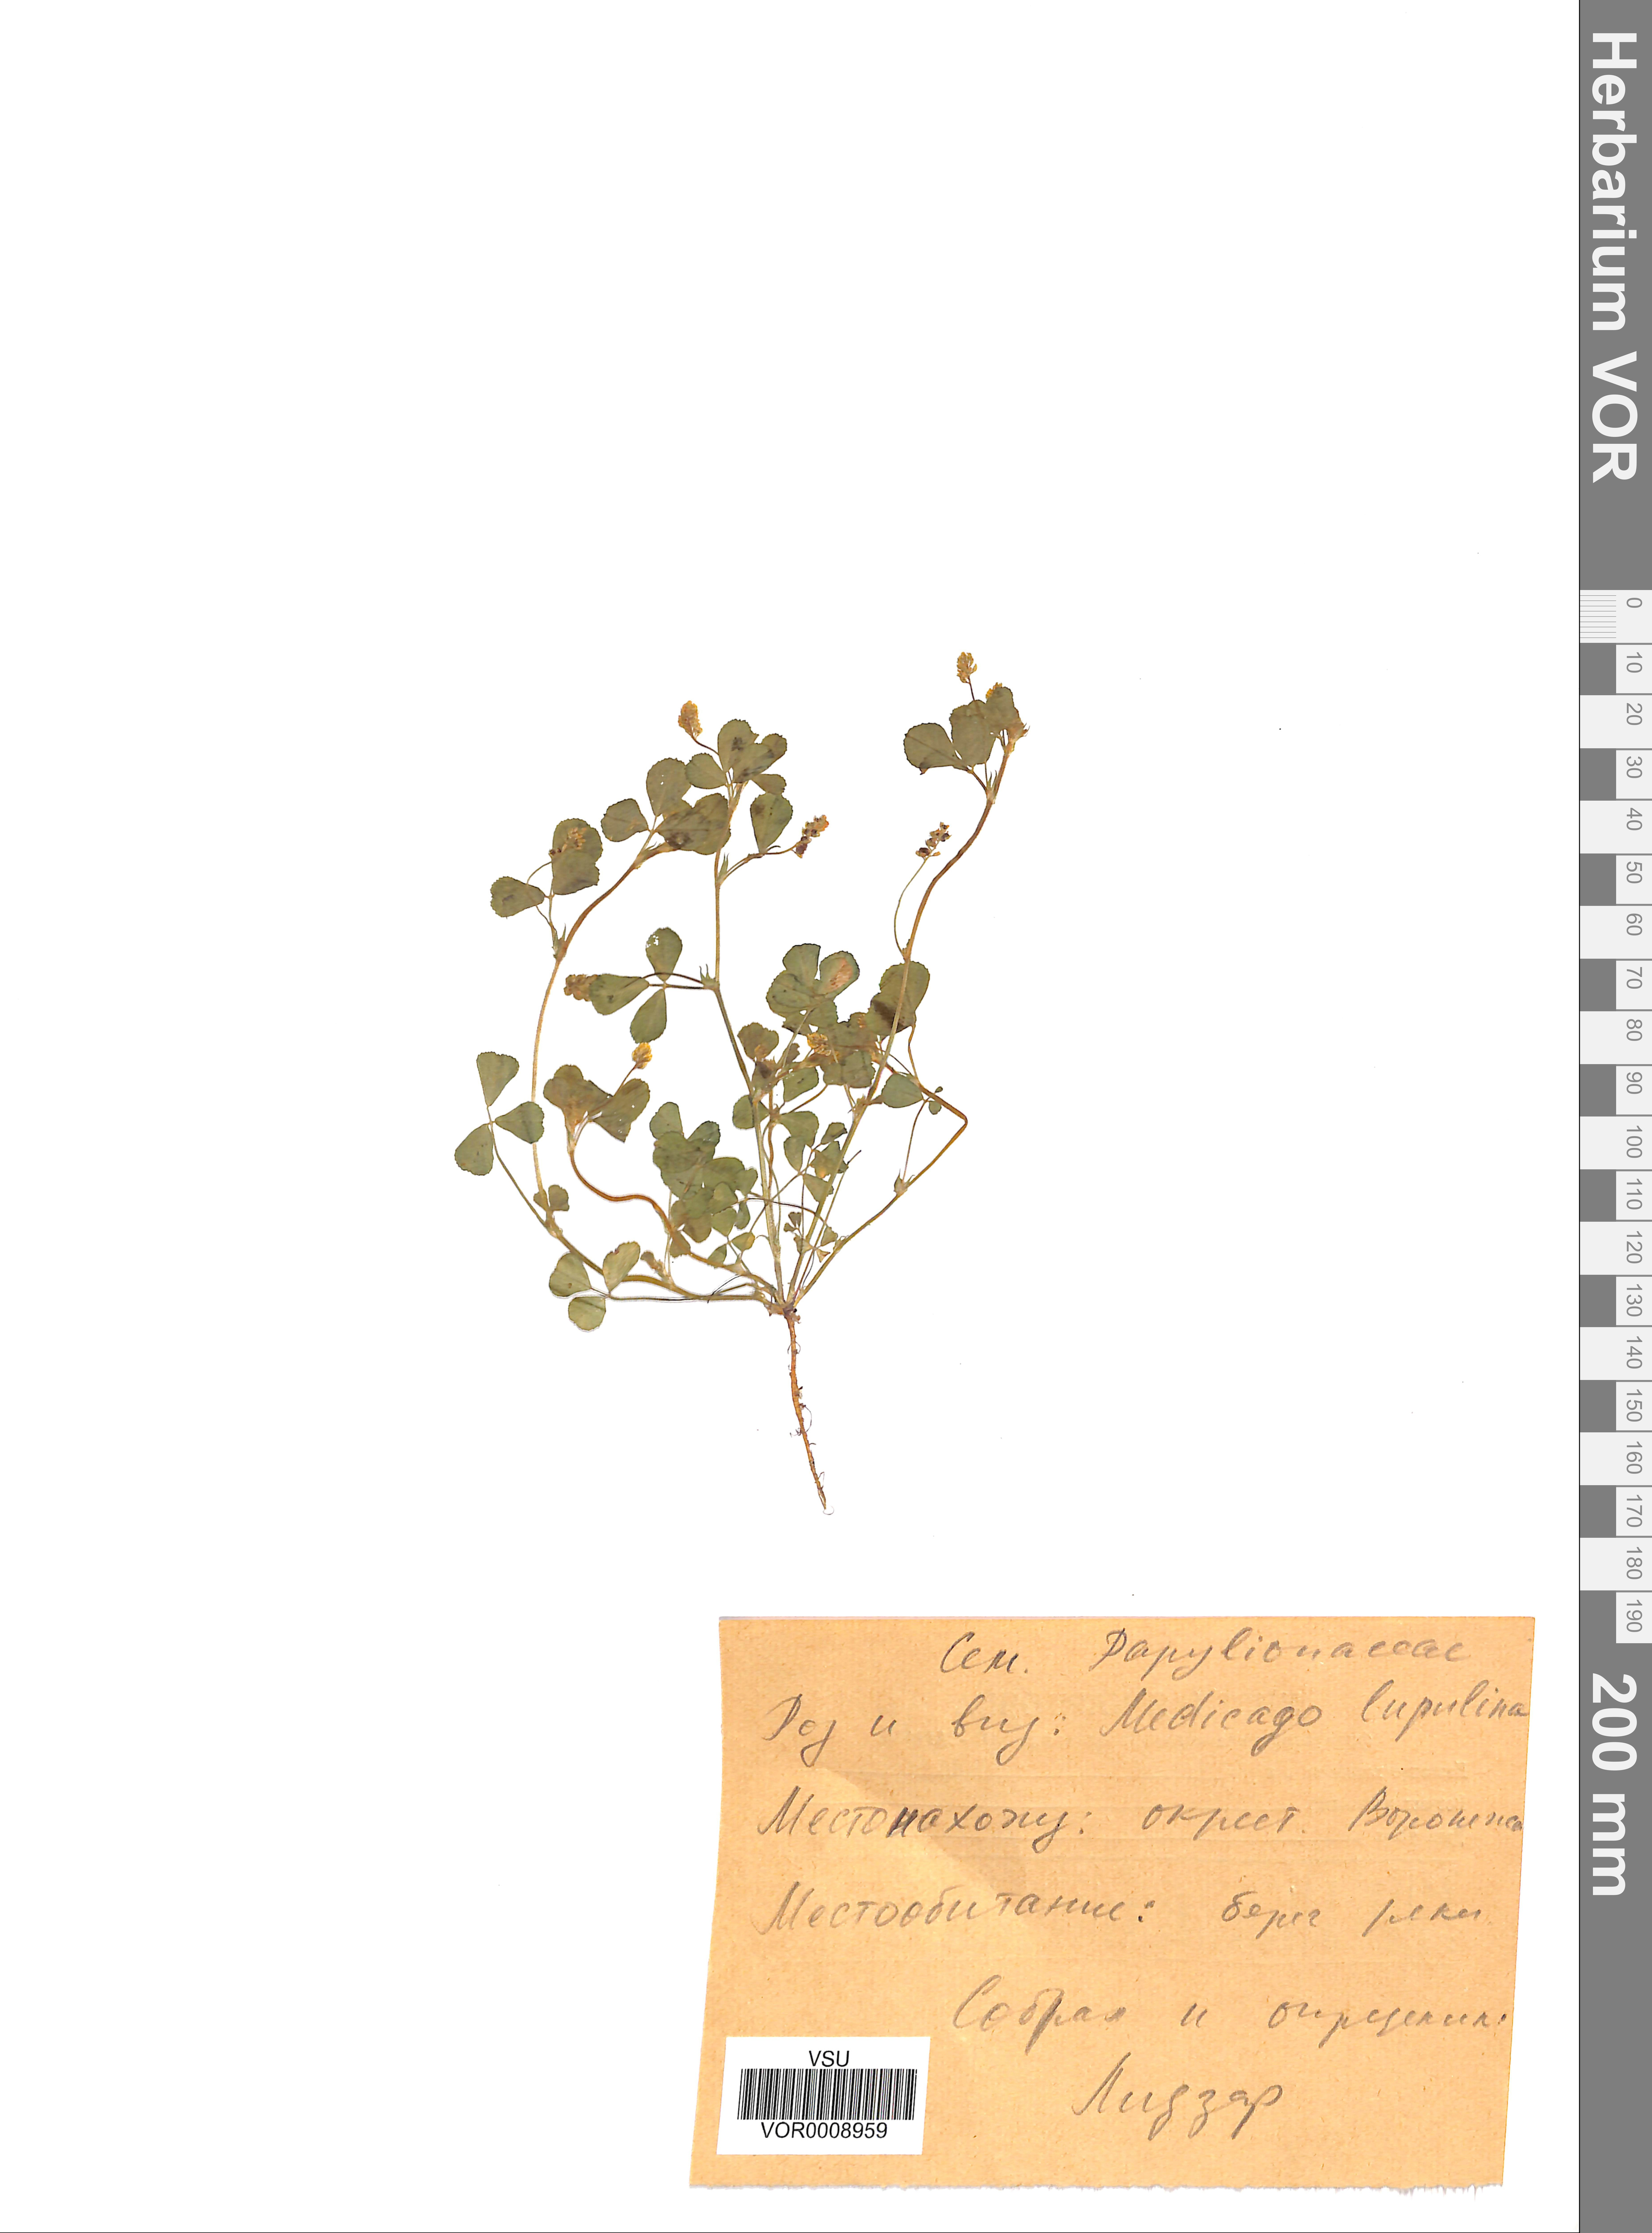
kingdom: Plantae
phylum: Tracheophyta
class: Magnoliopsida
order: Fabales
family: Fabaceae
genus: Medicago
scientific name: Medicago lupulina
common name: Black medick
